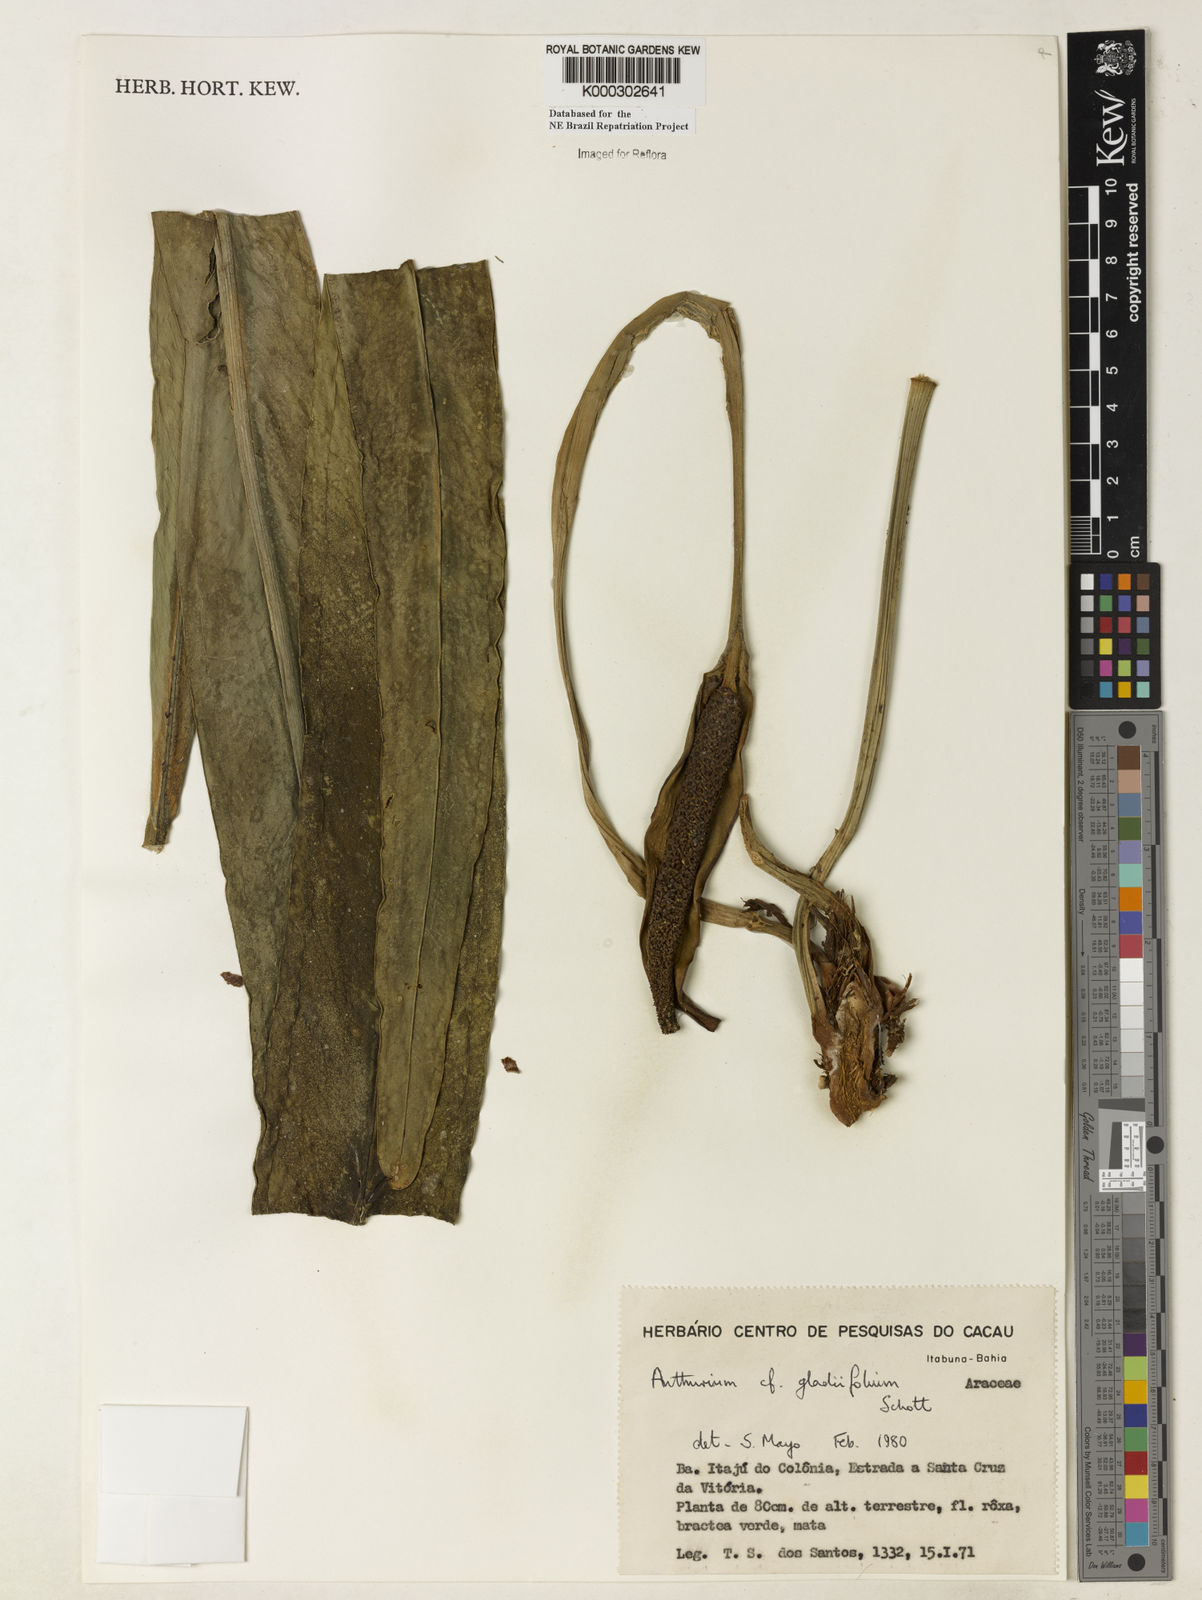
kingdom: Plantae
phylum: Tracheophyta
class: Liliopsida
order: Alismatales
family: Araceae
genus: Anthurium
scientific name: Anthurium gladiifolium
